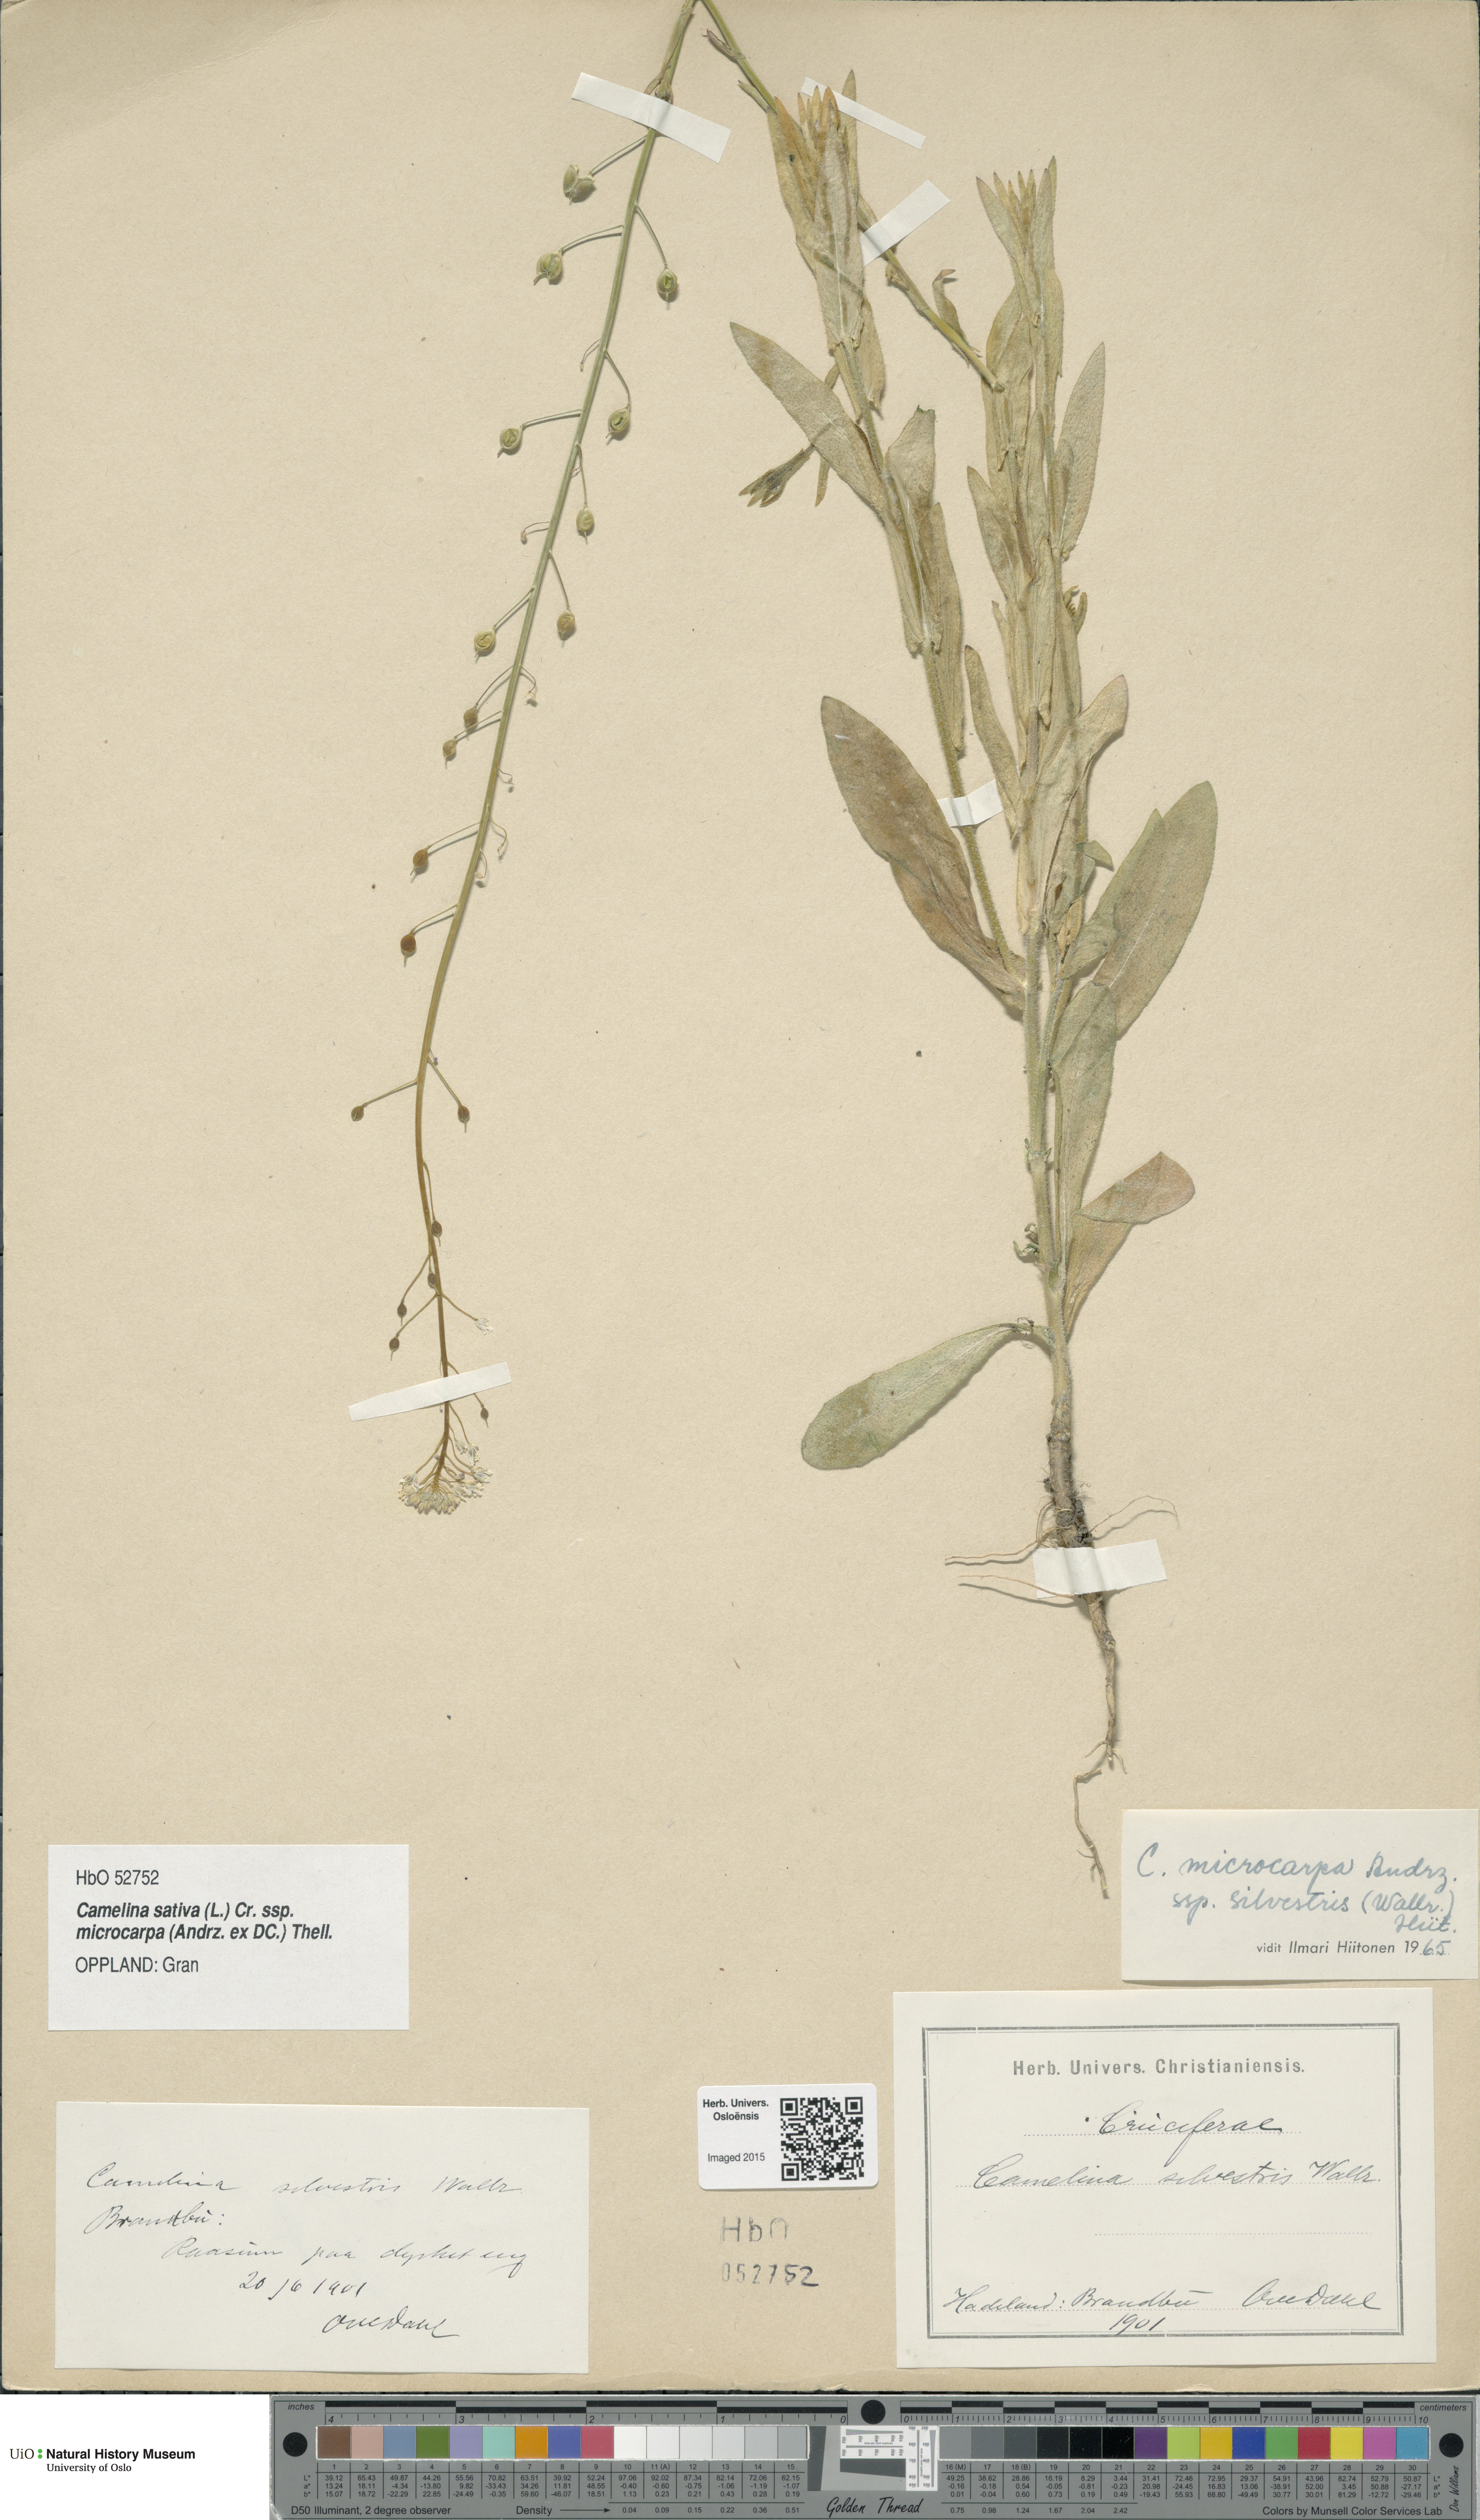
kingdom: Plantae
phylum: Tracheophyta
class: Magnoliopsida
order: Brassicales
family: Brassicaceae
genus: Camelina
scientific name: Camelina sativa
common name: Gold-of-pleasure
